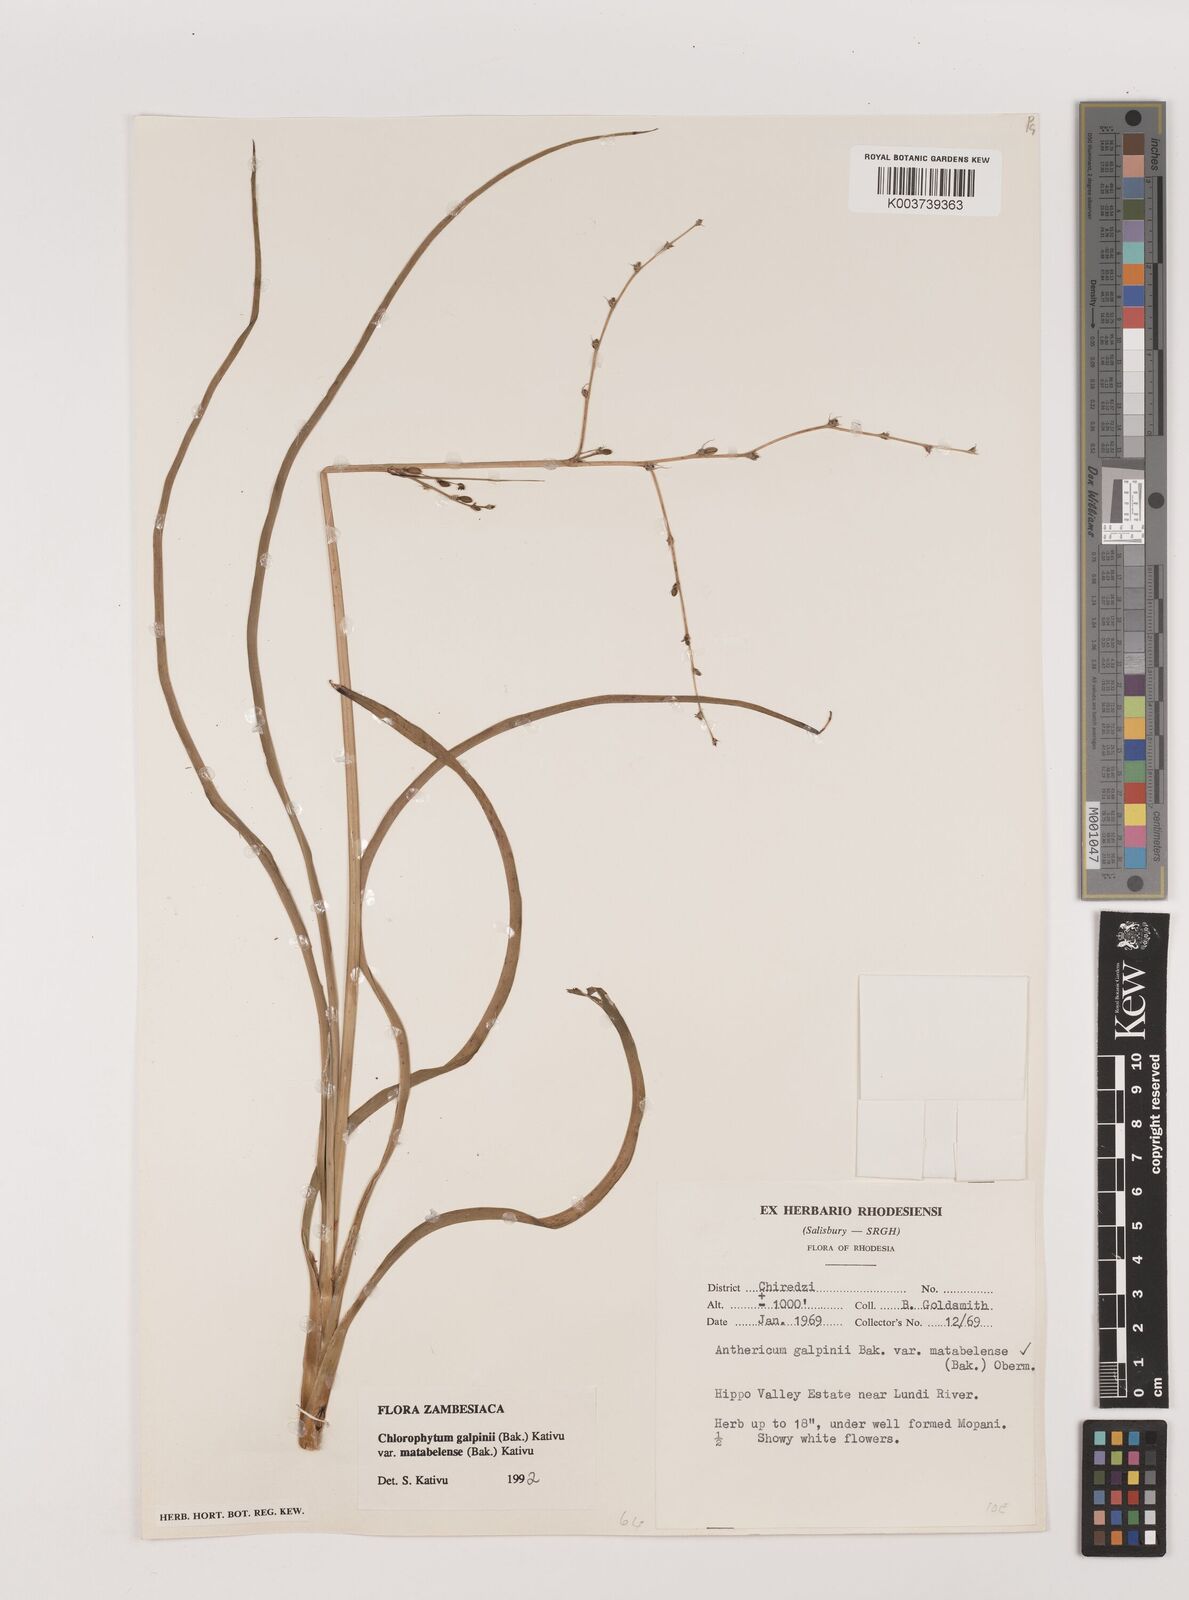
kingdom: Plantae
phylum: Tracheophyta
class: Liliopsida
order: Asparagales
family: Asparagaceae
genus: Chlorophytum
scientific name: Chlorophytum galpinii
